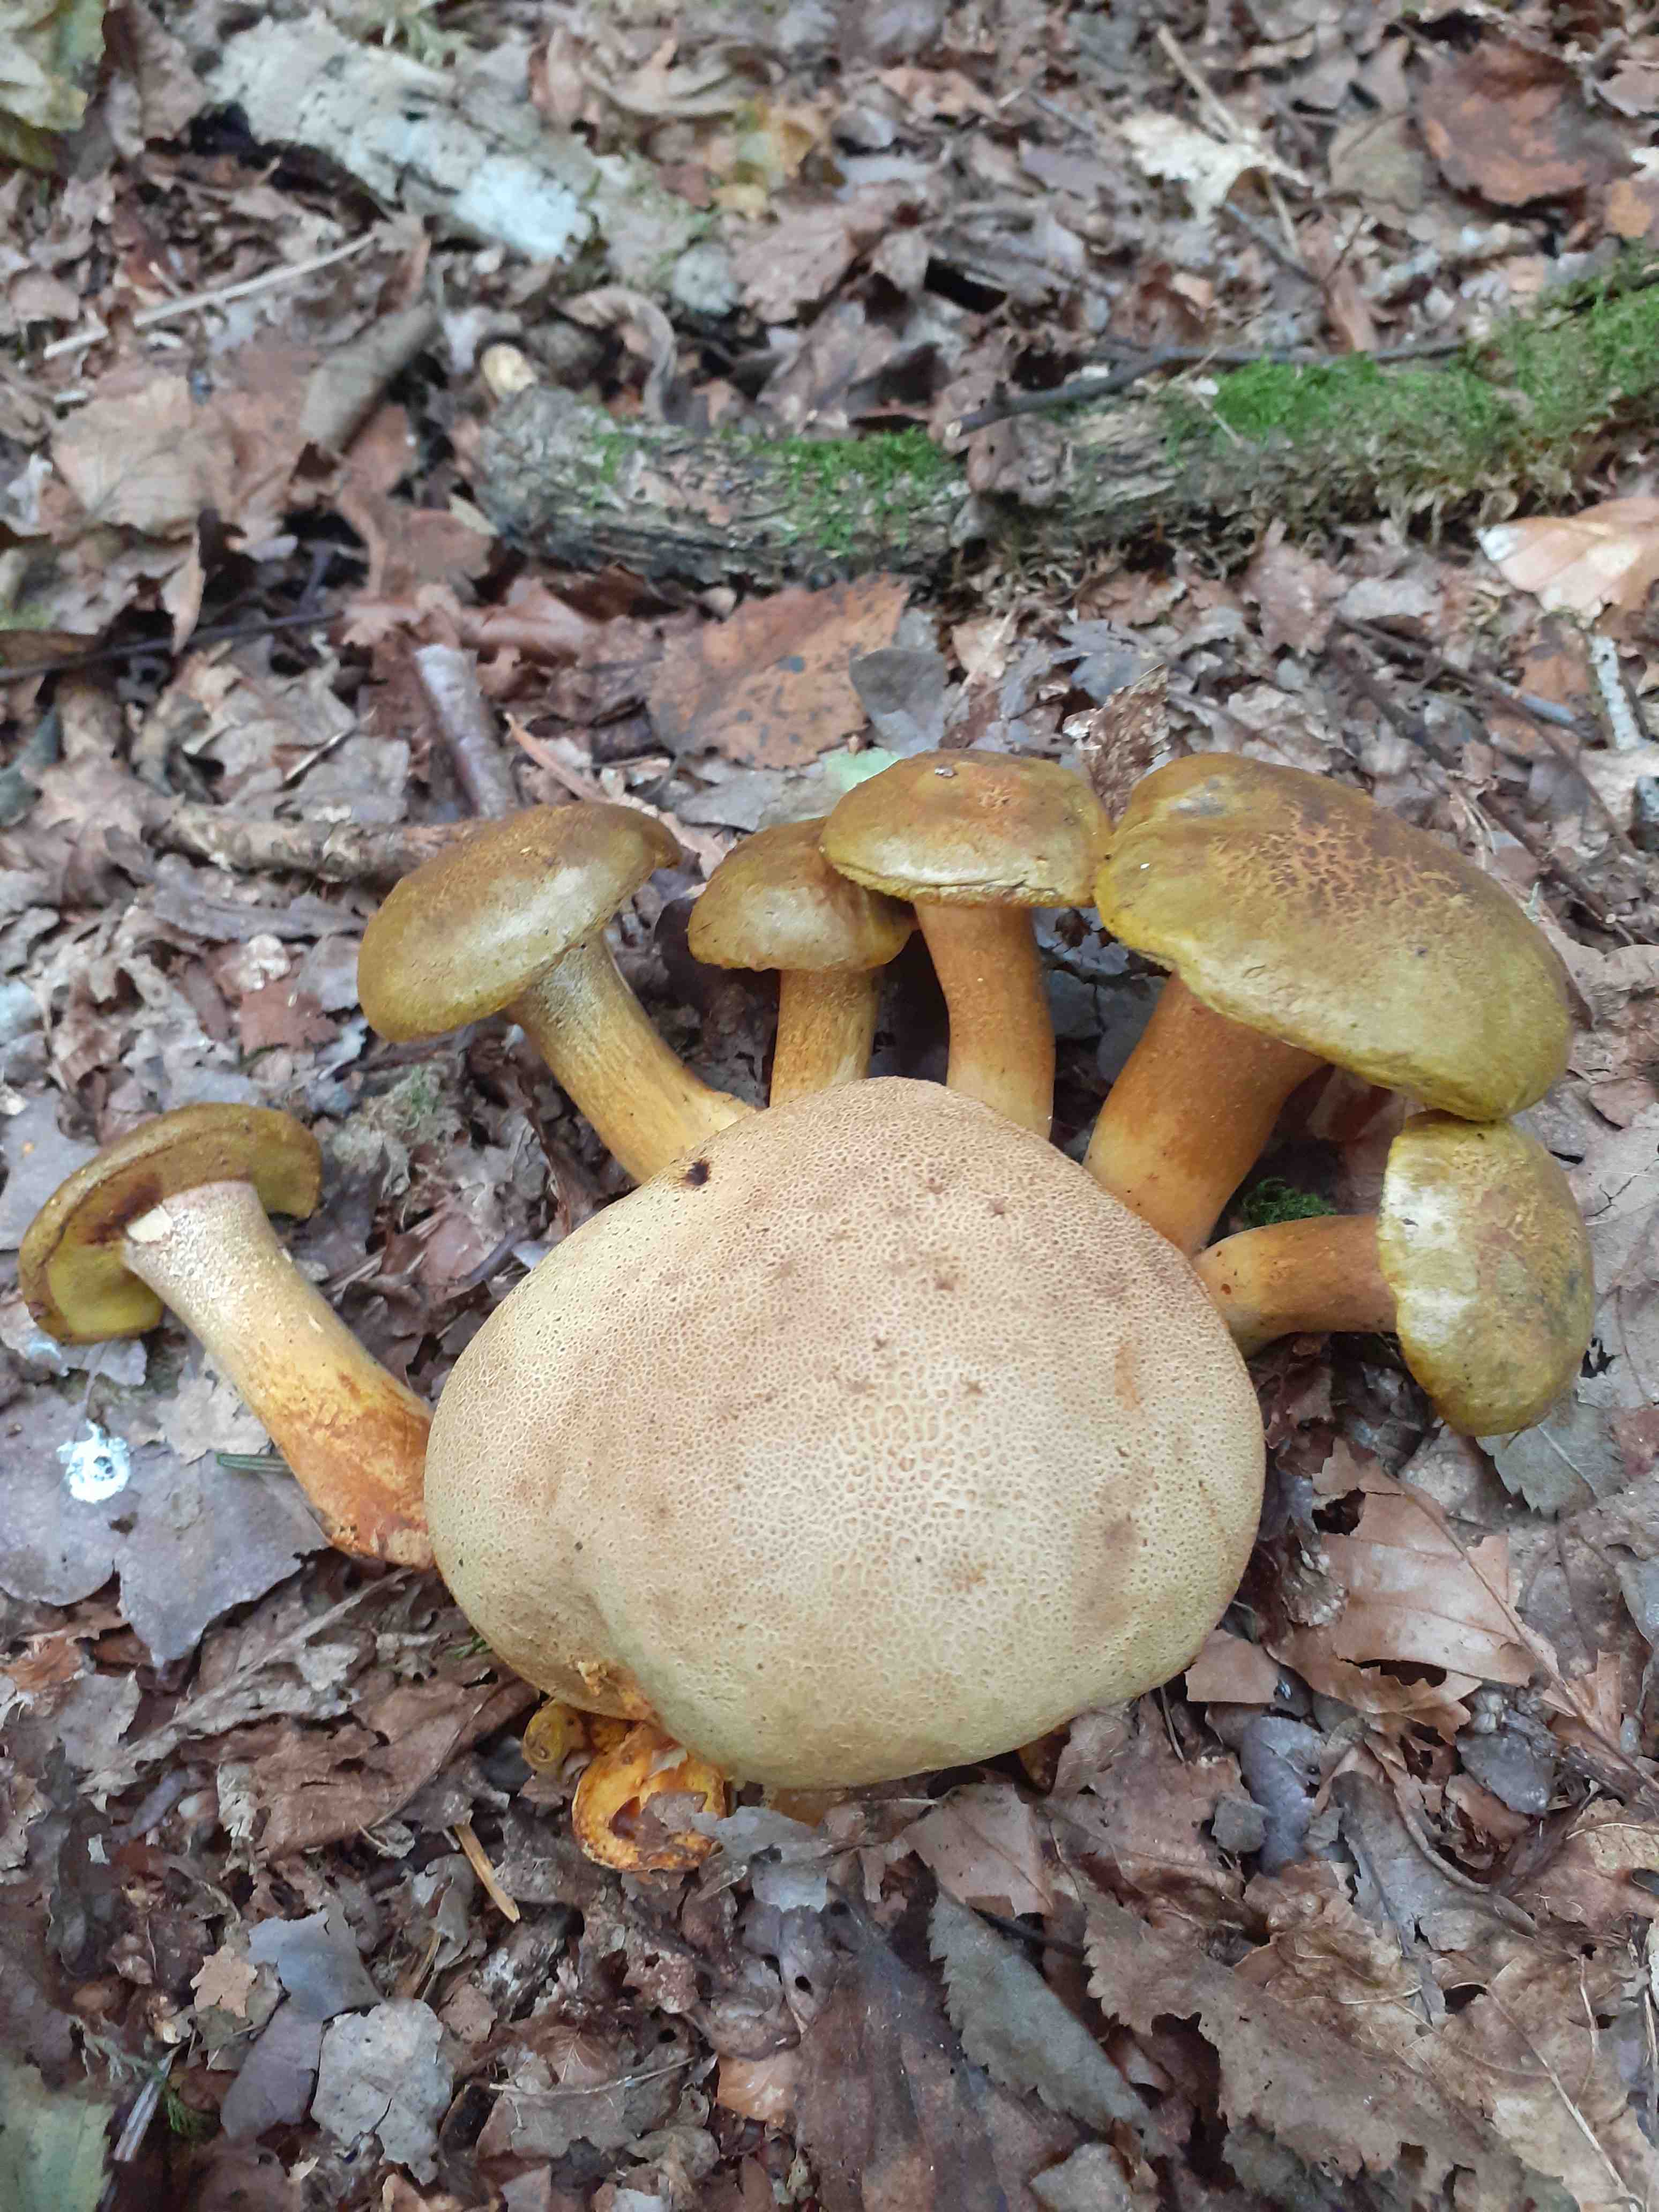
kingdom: Fungi
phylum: Basidiomycota
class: Agaricomycetes
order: Boletales
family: Boletaceae
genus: Pseudoboletus
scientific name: Pseudoboletus parasiticus
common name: snyltende rørhat
